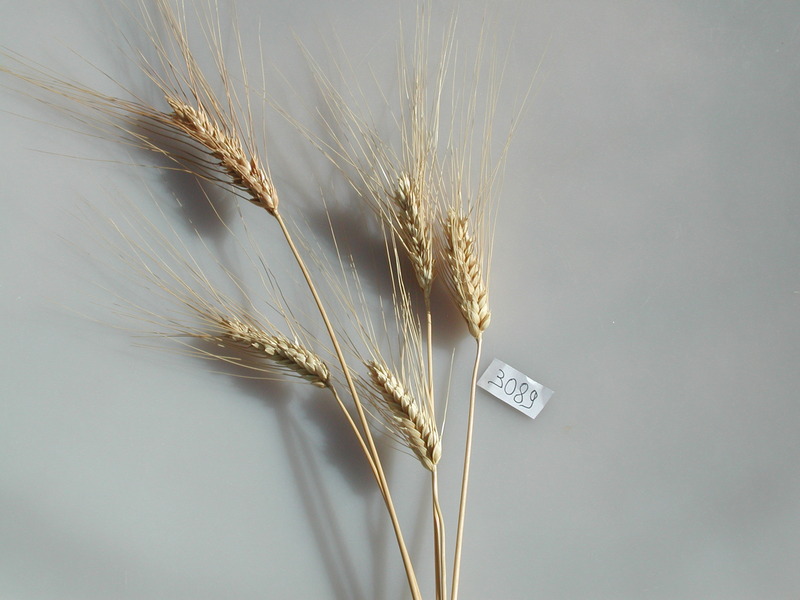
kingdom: Plantae
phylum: Tracheophyta
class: Liliopsida
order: Poales
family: Poaceae
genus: Triticum
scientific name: Triticum turgidum
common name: Wheat
